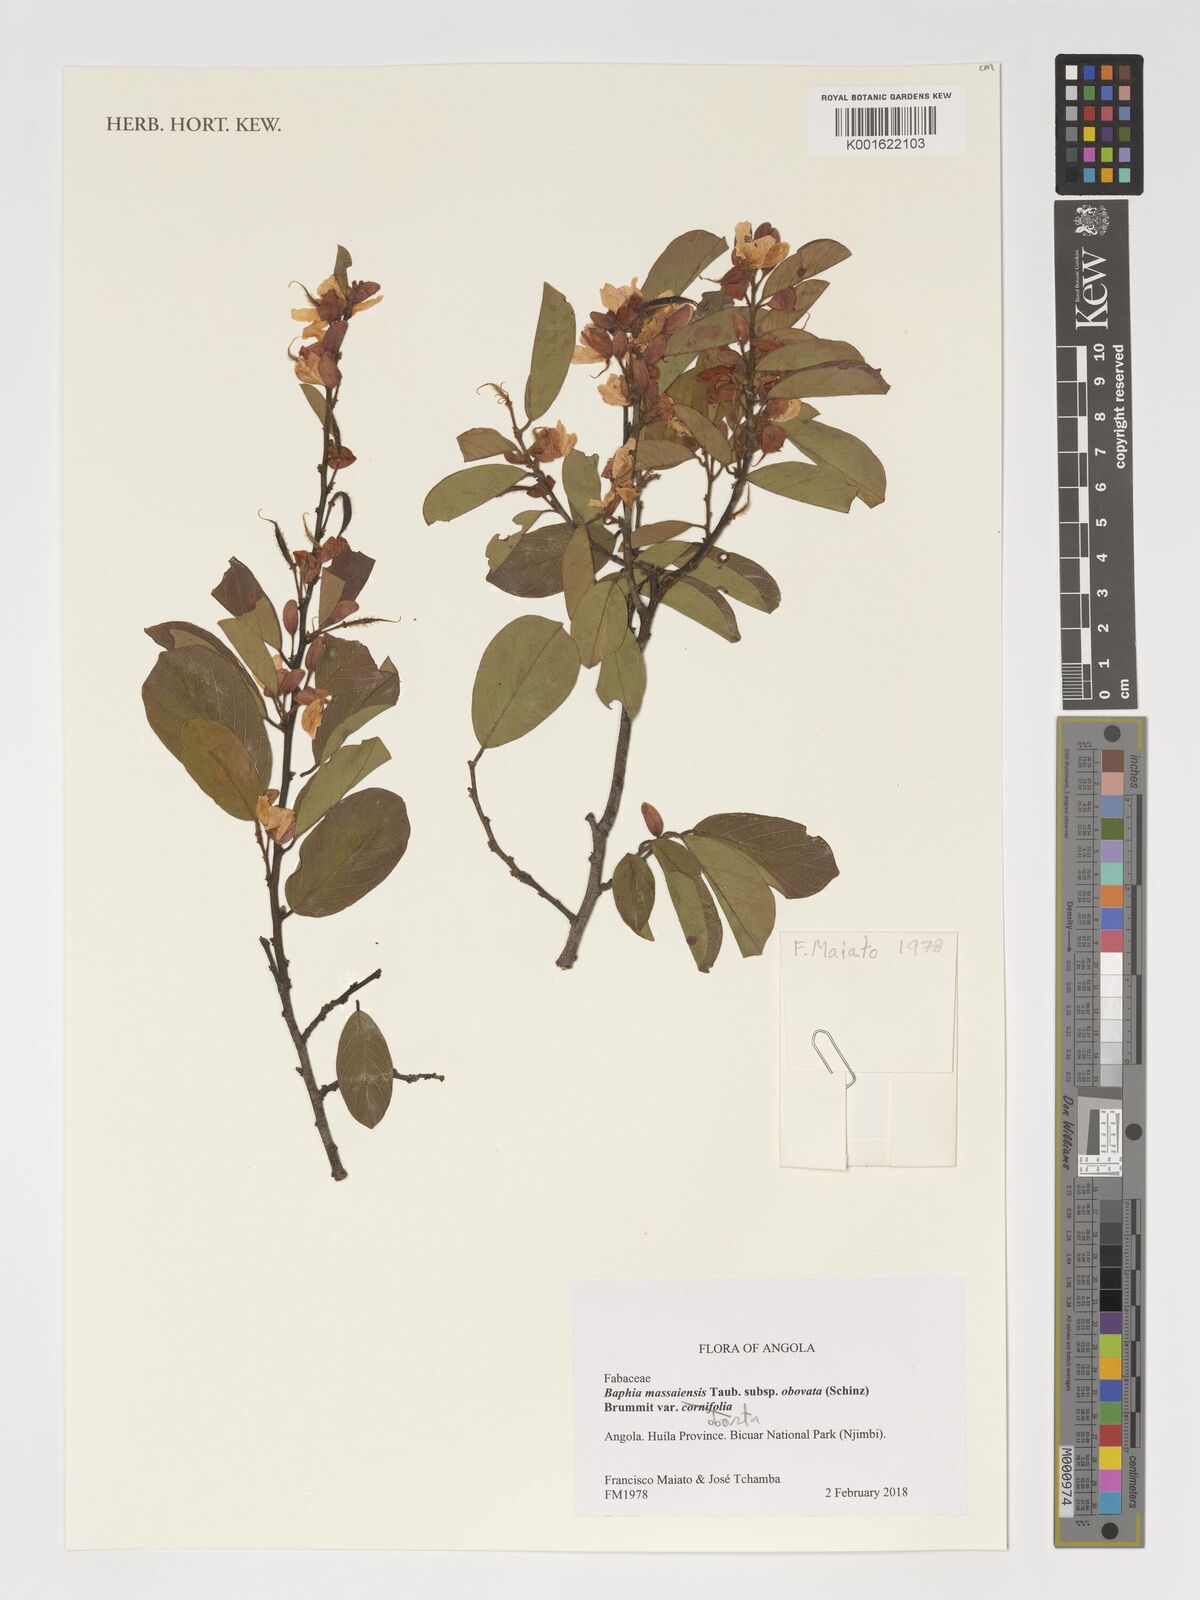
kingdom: Plantae
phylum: Tracheophyta
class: Magnoliopsida
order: Fabales
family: Fabaceae
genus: Baphia
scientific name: Baphia massaiensis
